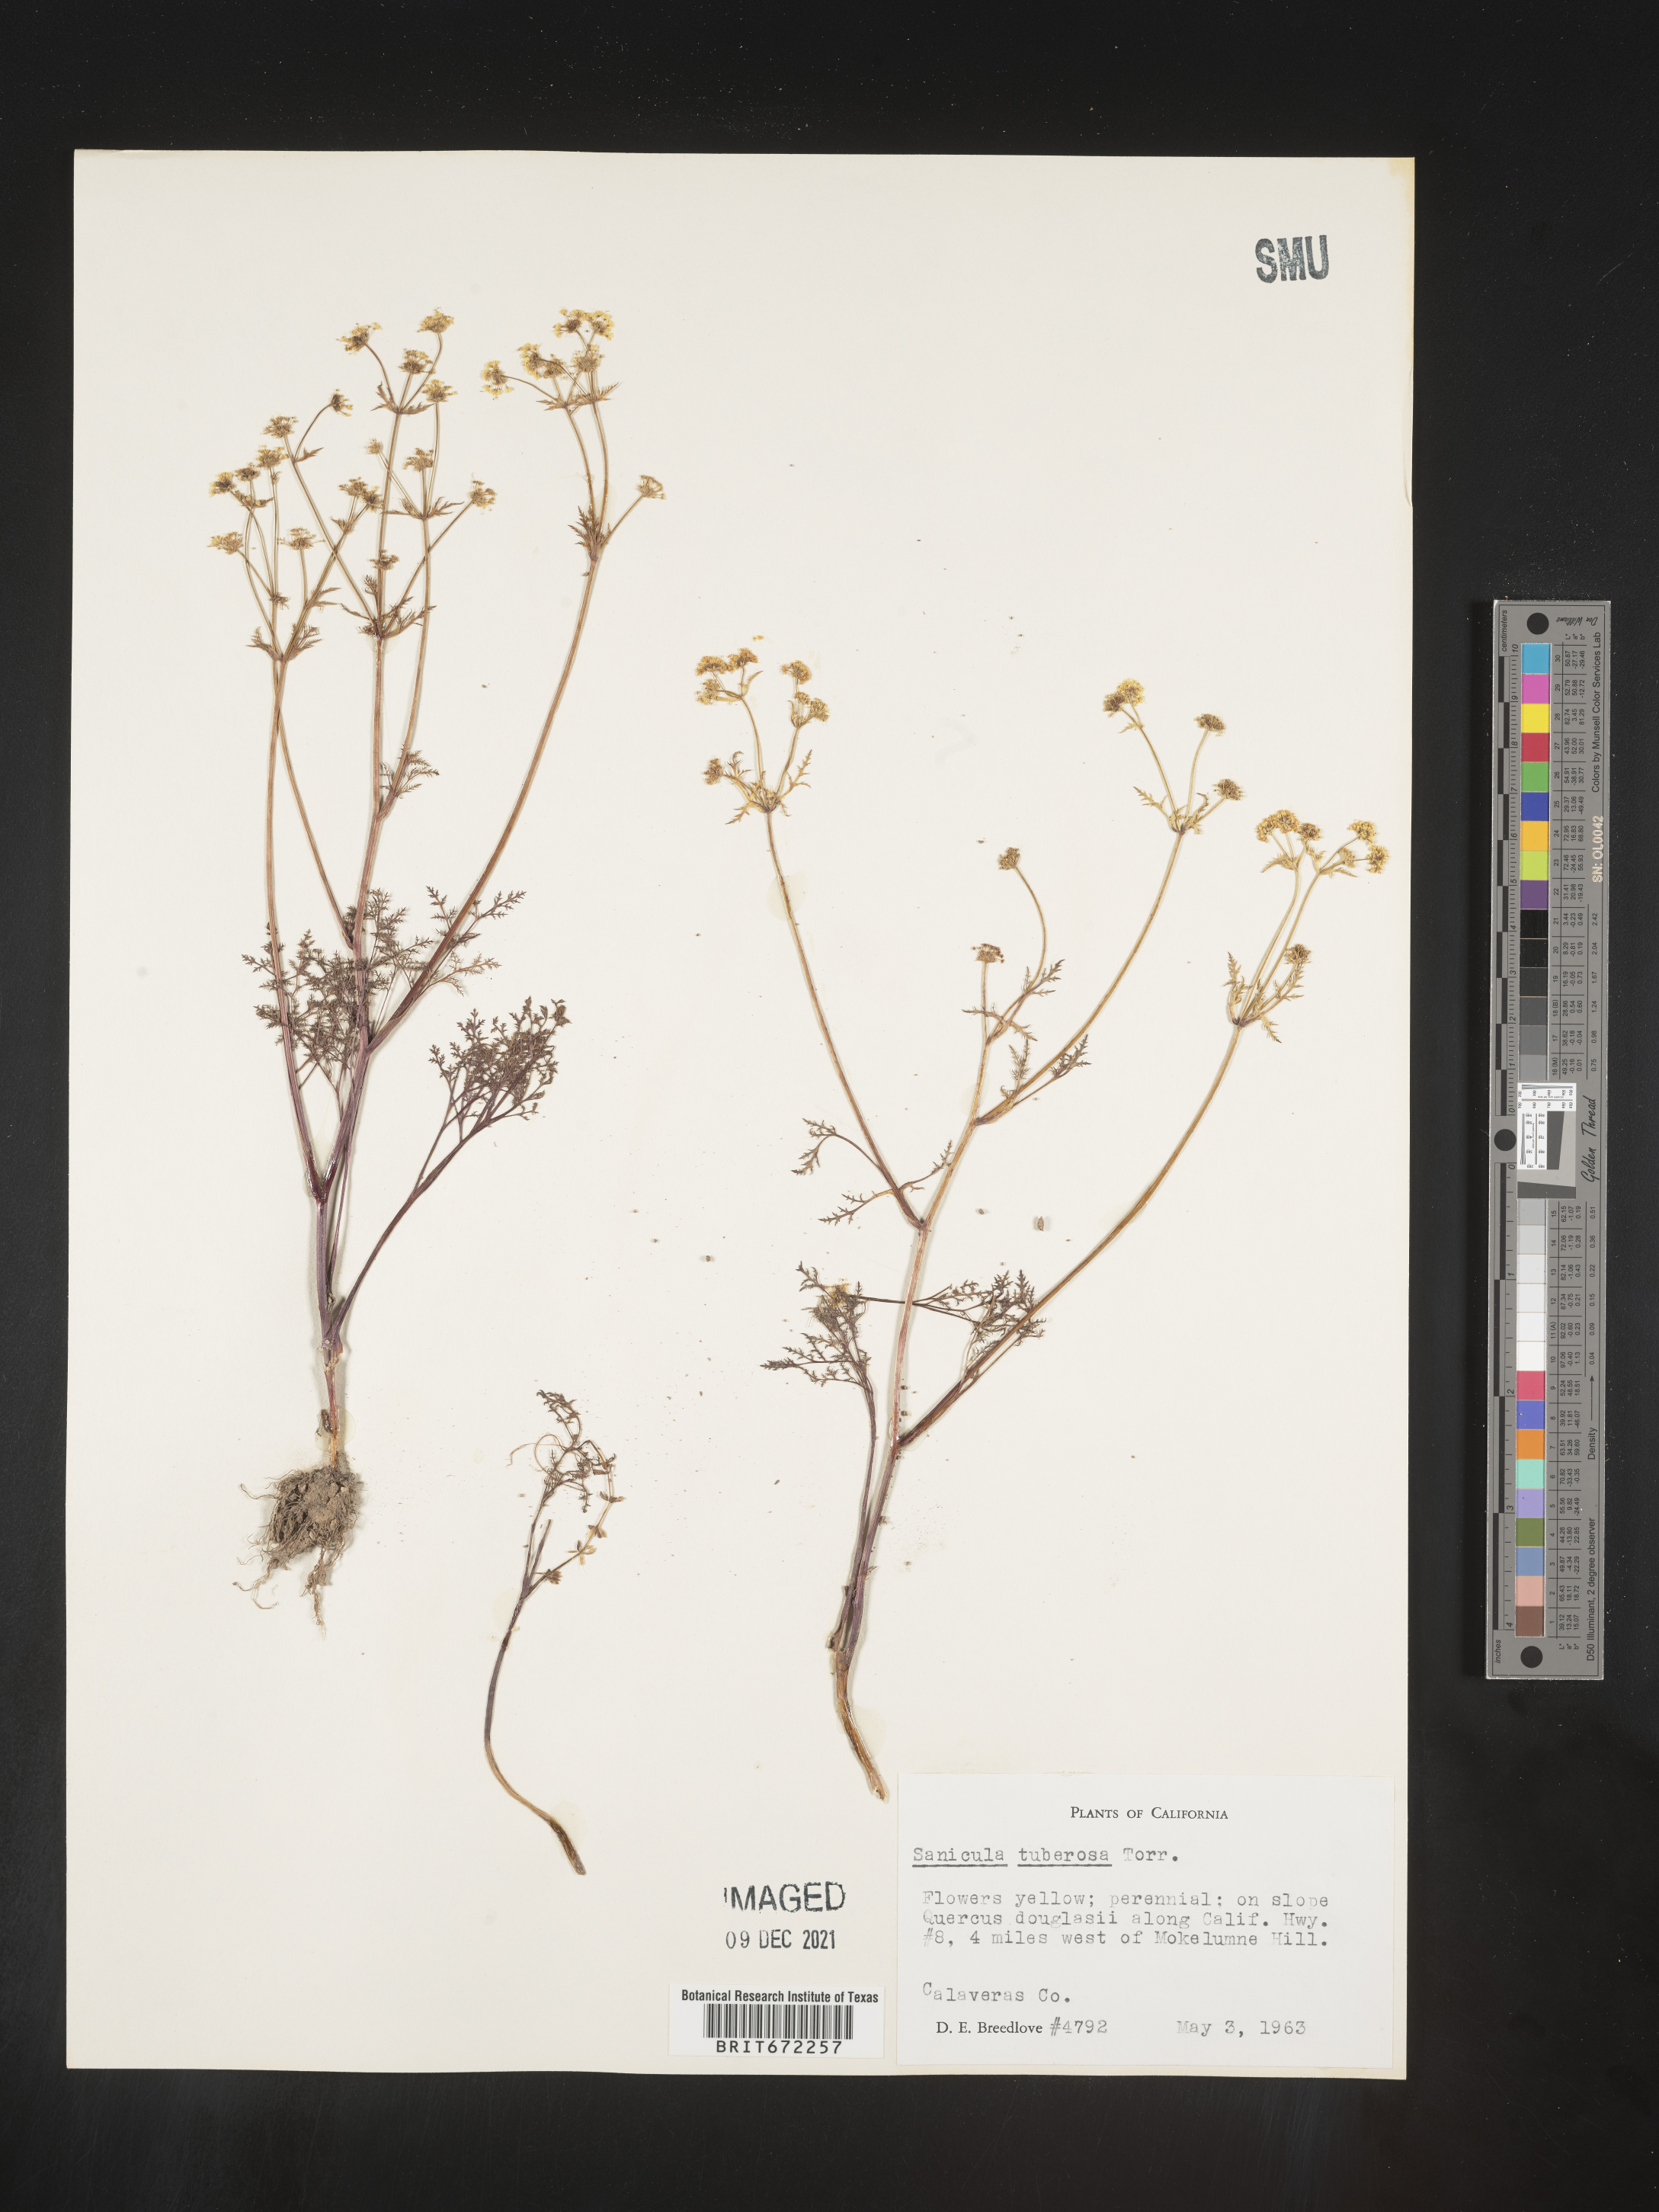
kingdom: Plantae
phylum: Tracheophyta
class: Magnoliopsida
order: Apiales
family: Apiaceae
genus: Sanicula
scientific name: Sanicula
